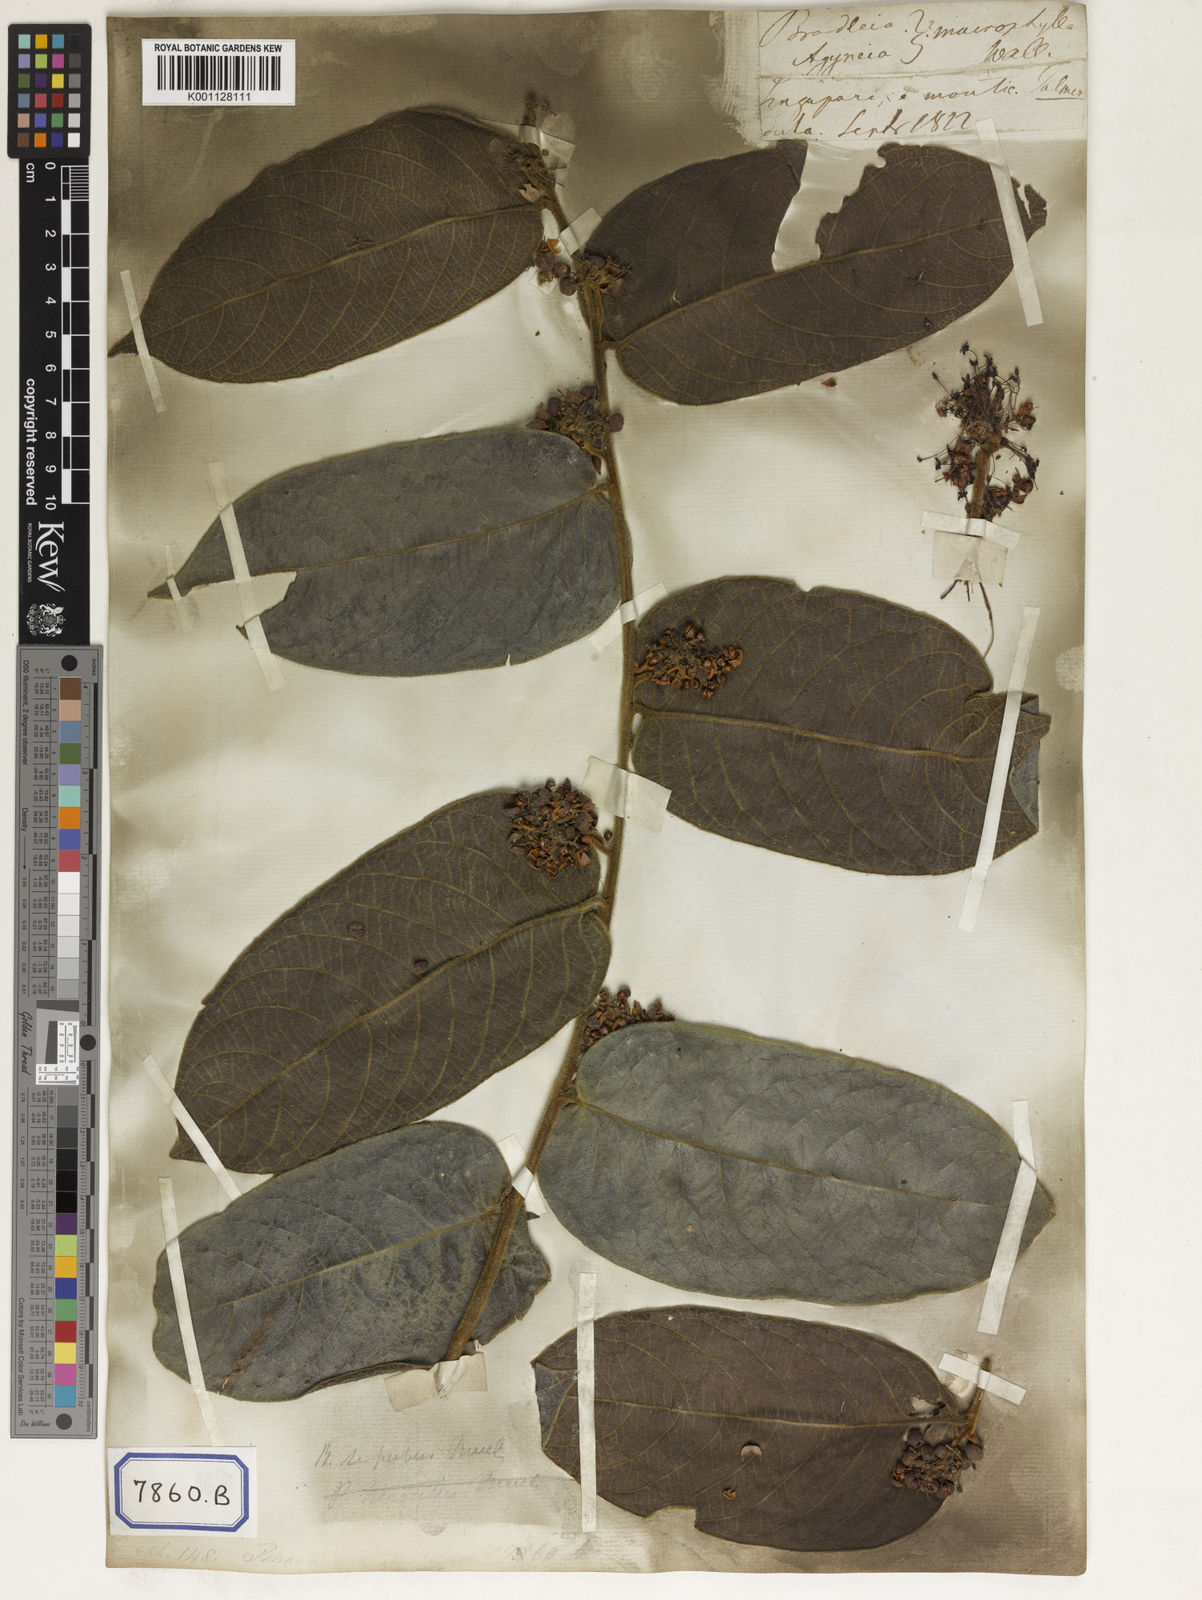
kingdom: Plantae
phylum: Tracheophyta
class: Magnoliopsida
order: Malpighiales
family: Euphorbiaceae
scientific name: Euphorbiaceae
